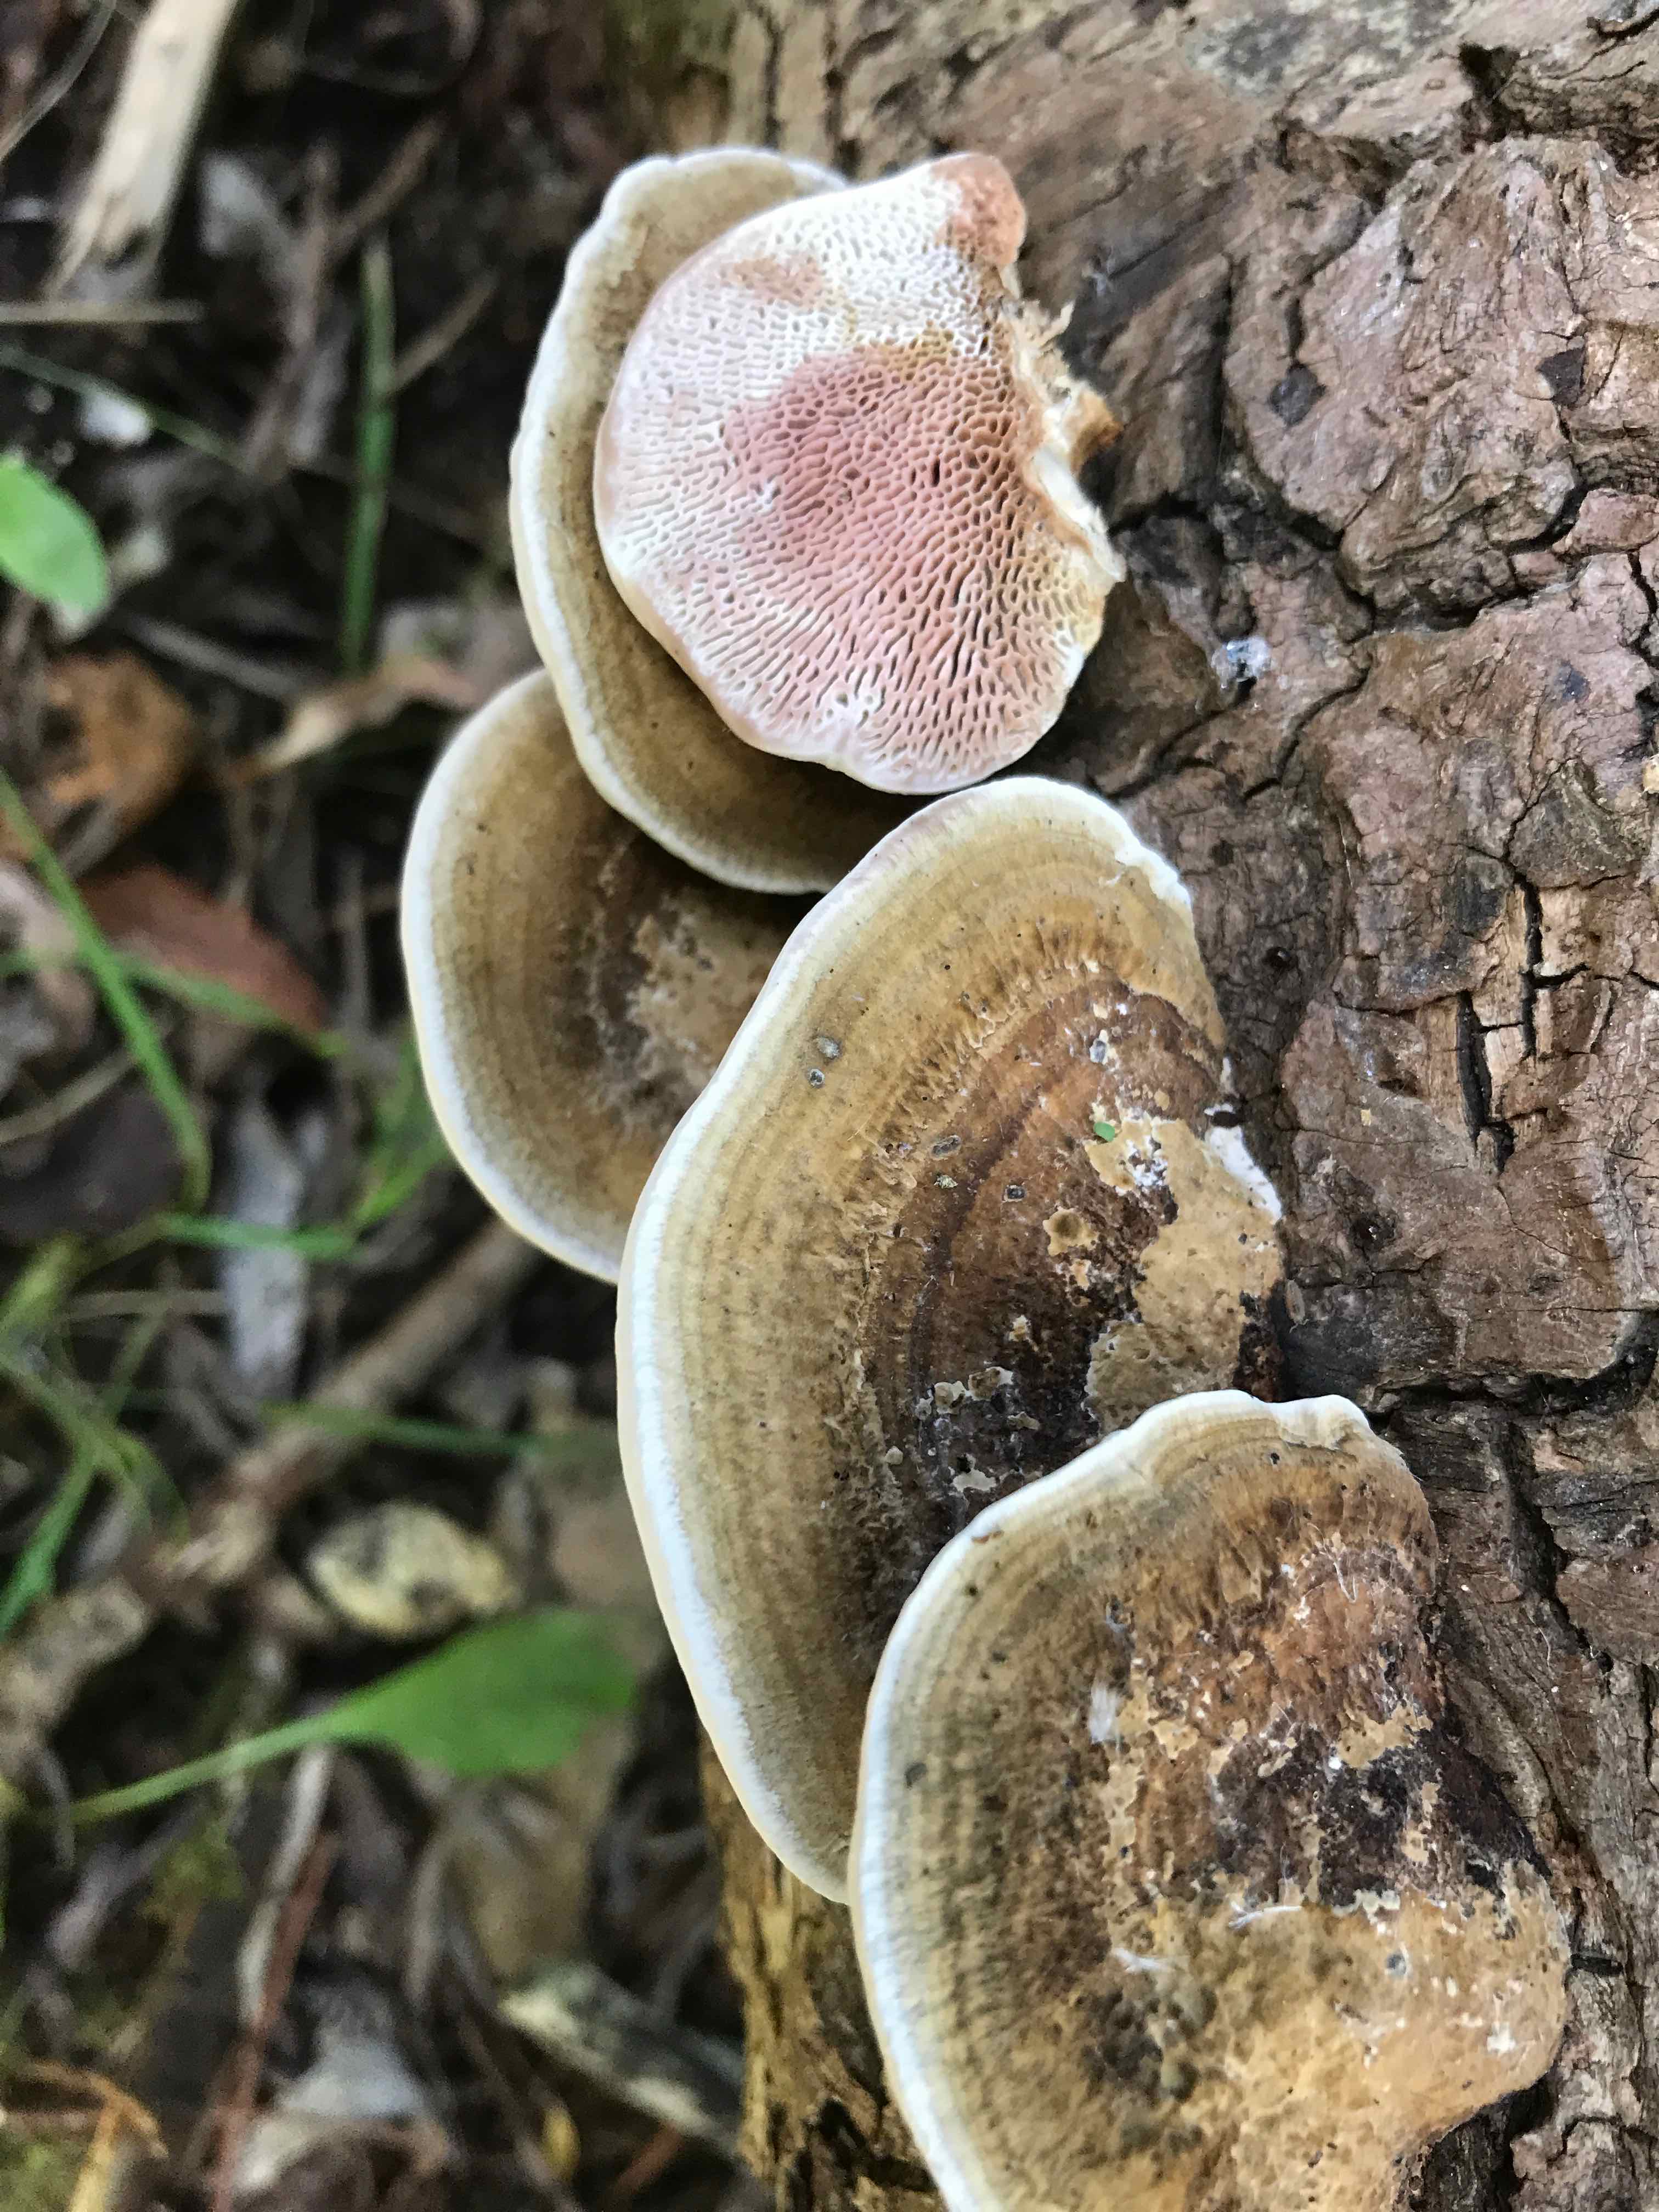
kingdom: Fungi
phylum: Basidiomycota
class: Agaricomycetes
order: Polyporales
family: Polyporaceae
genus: Daedaleopsis
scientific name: Daedaleopsis confragosa
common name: rødmende læderporesvamp
